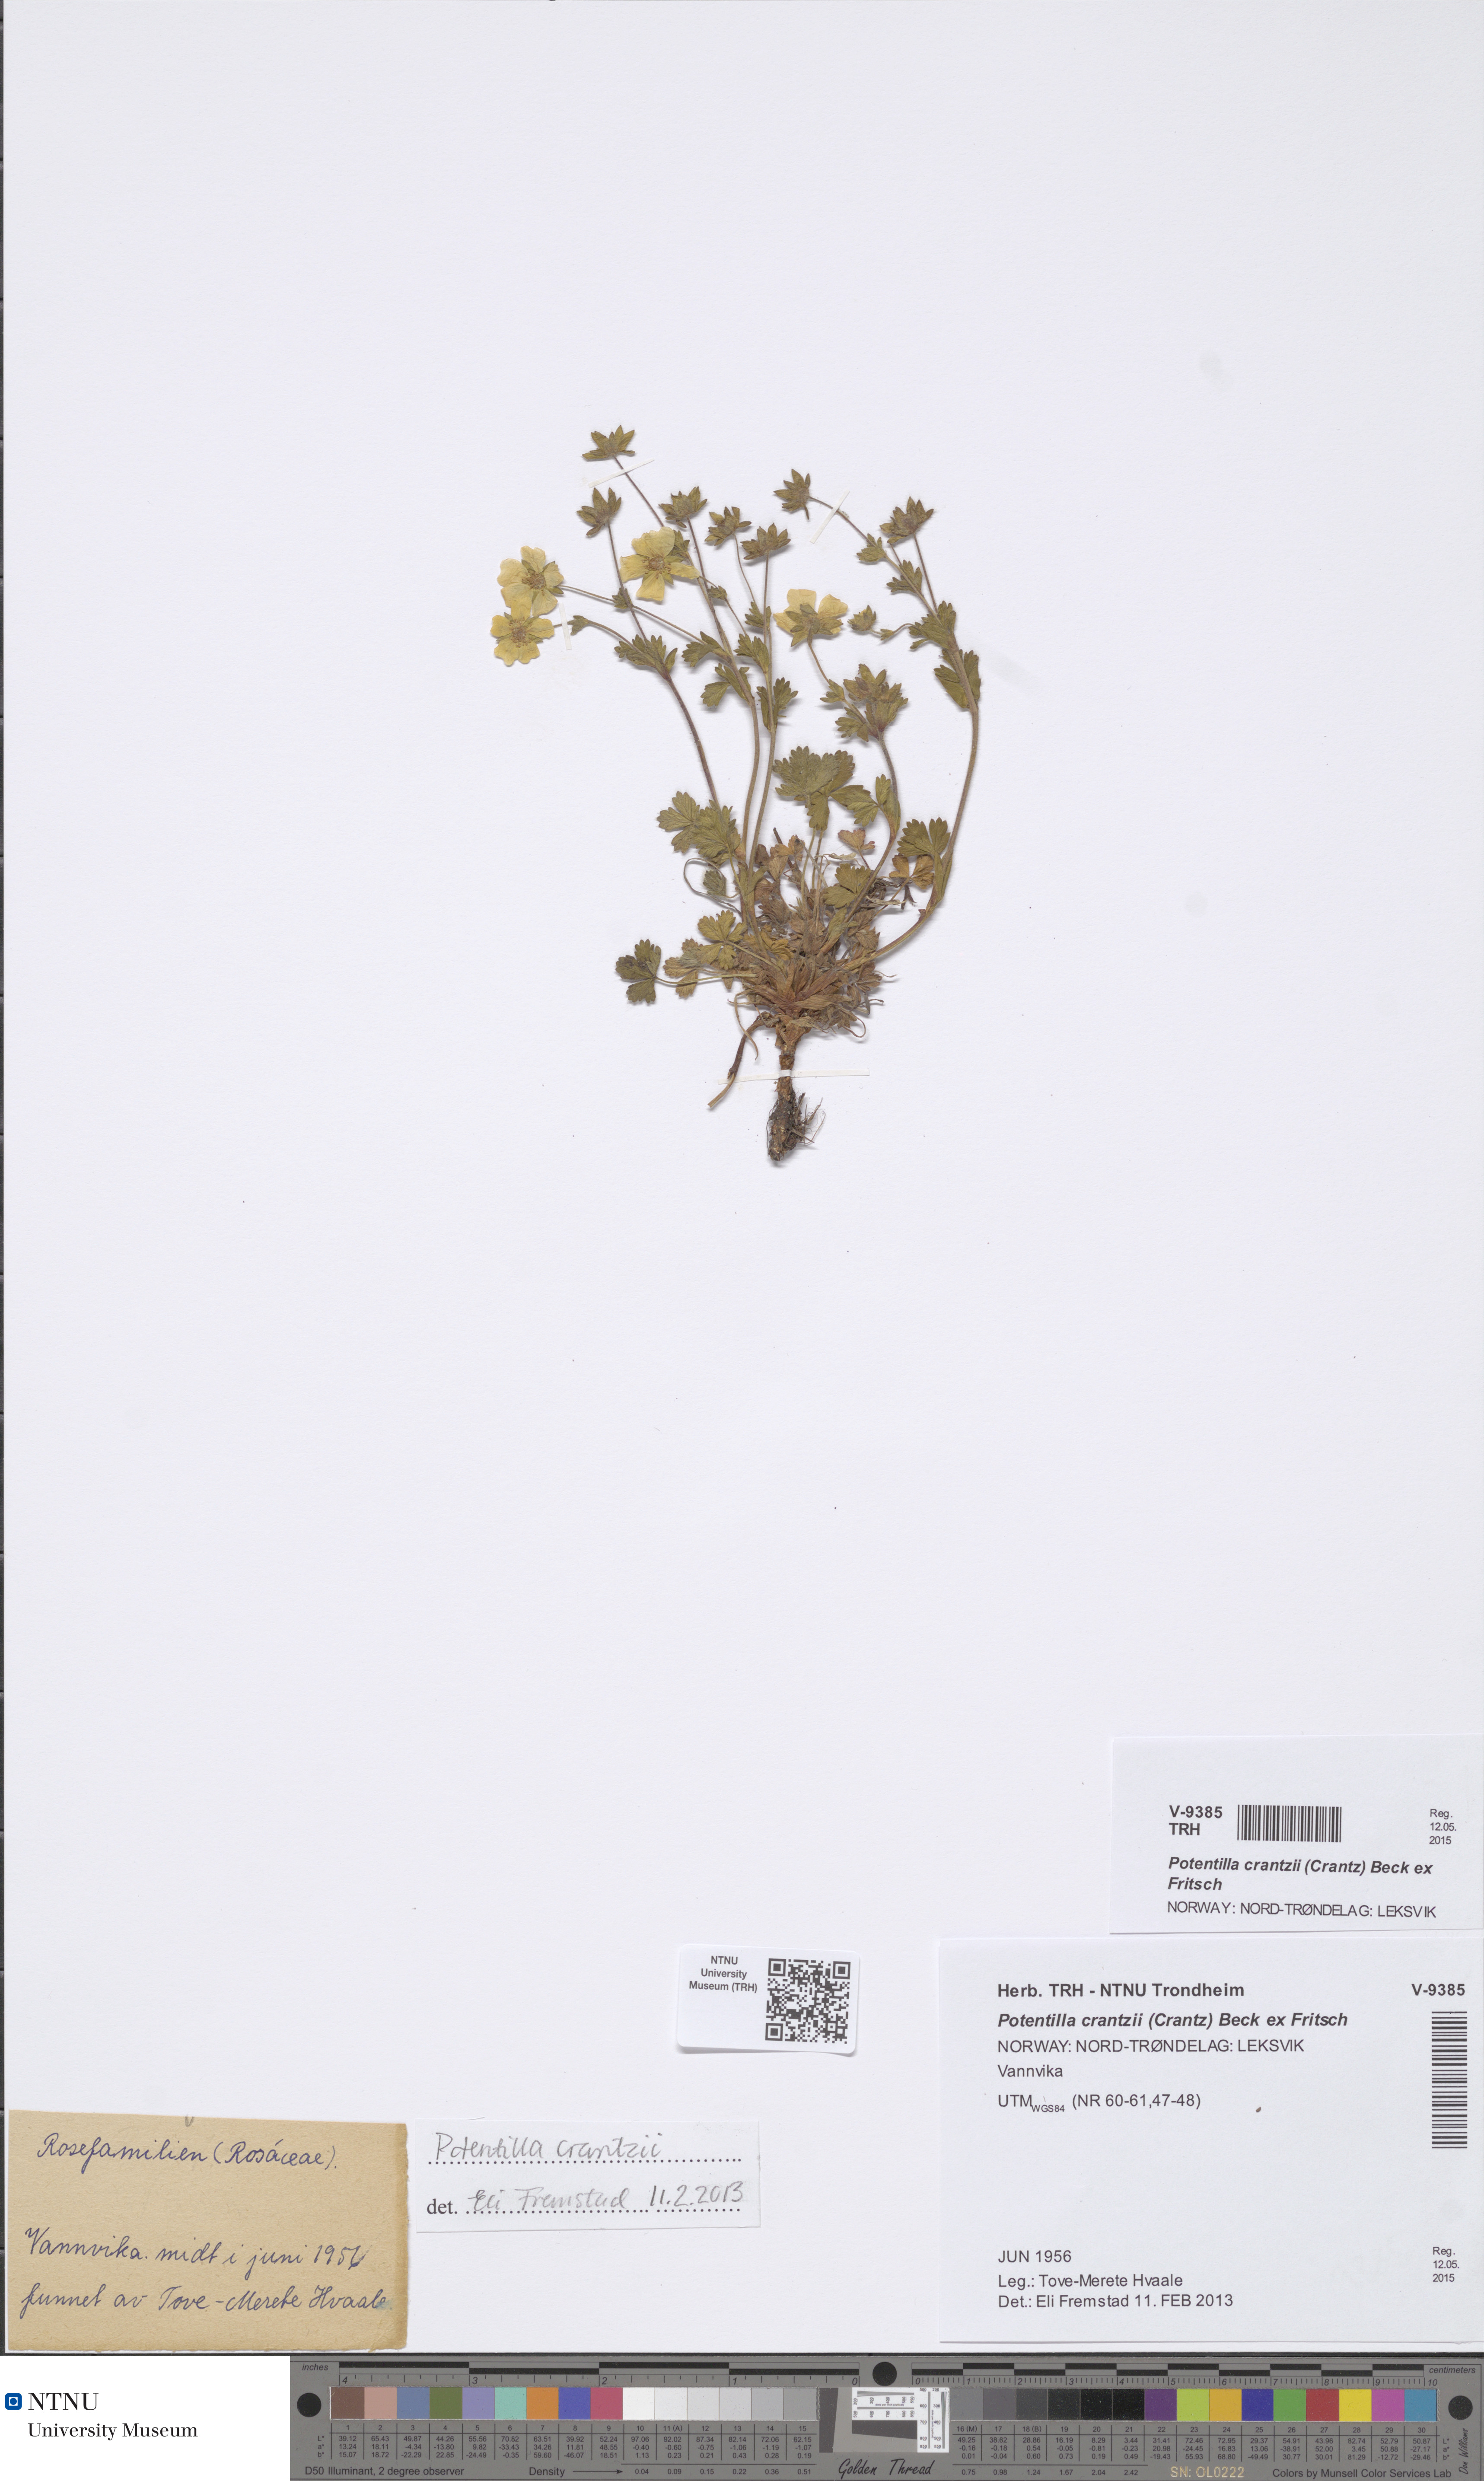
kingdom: Plantae
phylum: Tracheophyta
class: Magnoliopsida
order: Rosales
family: Rosaceae
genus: Potentilla
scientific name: Potentilla crantzii
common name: Alpine cinquefoil
